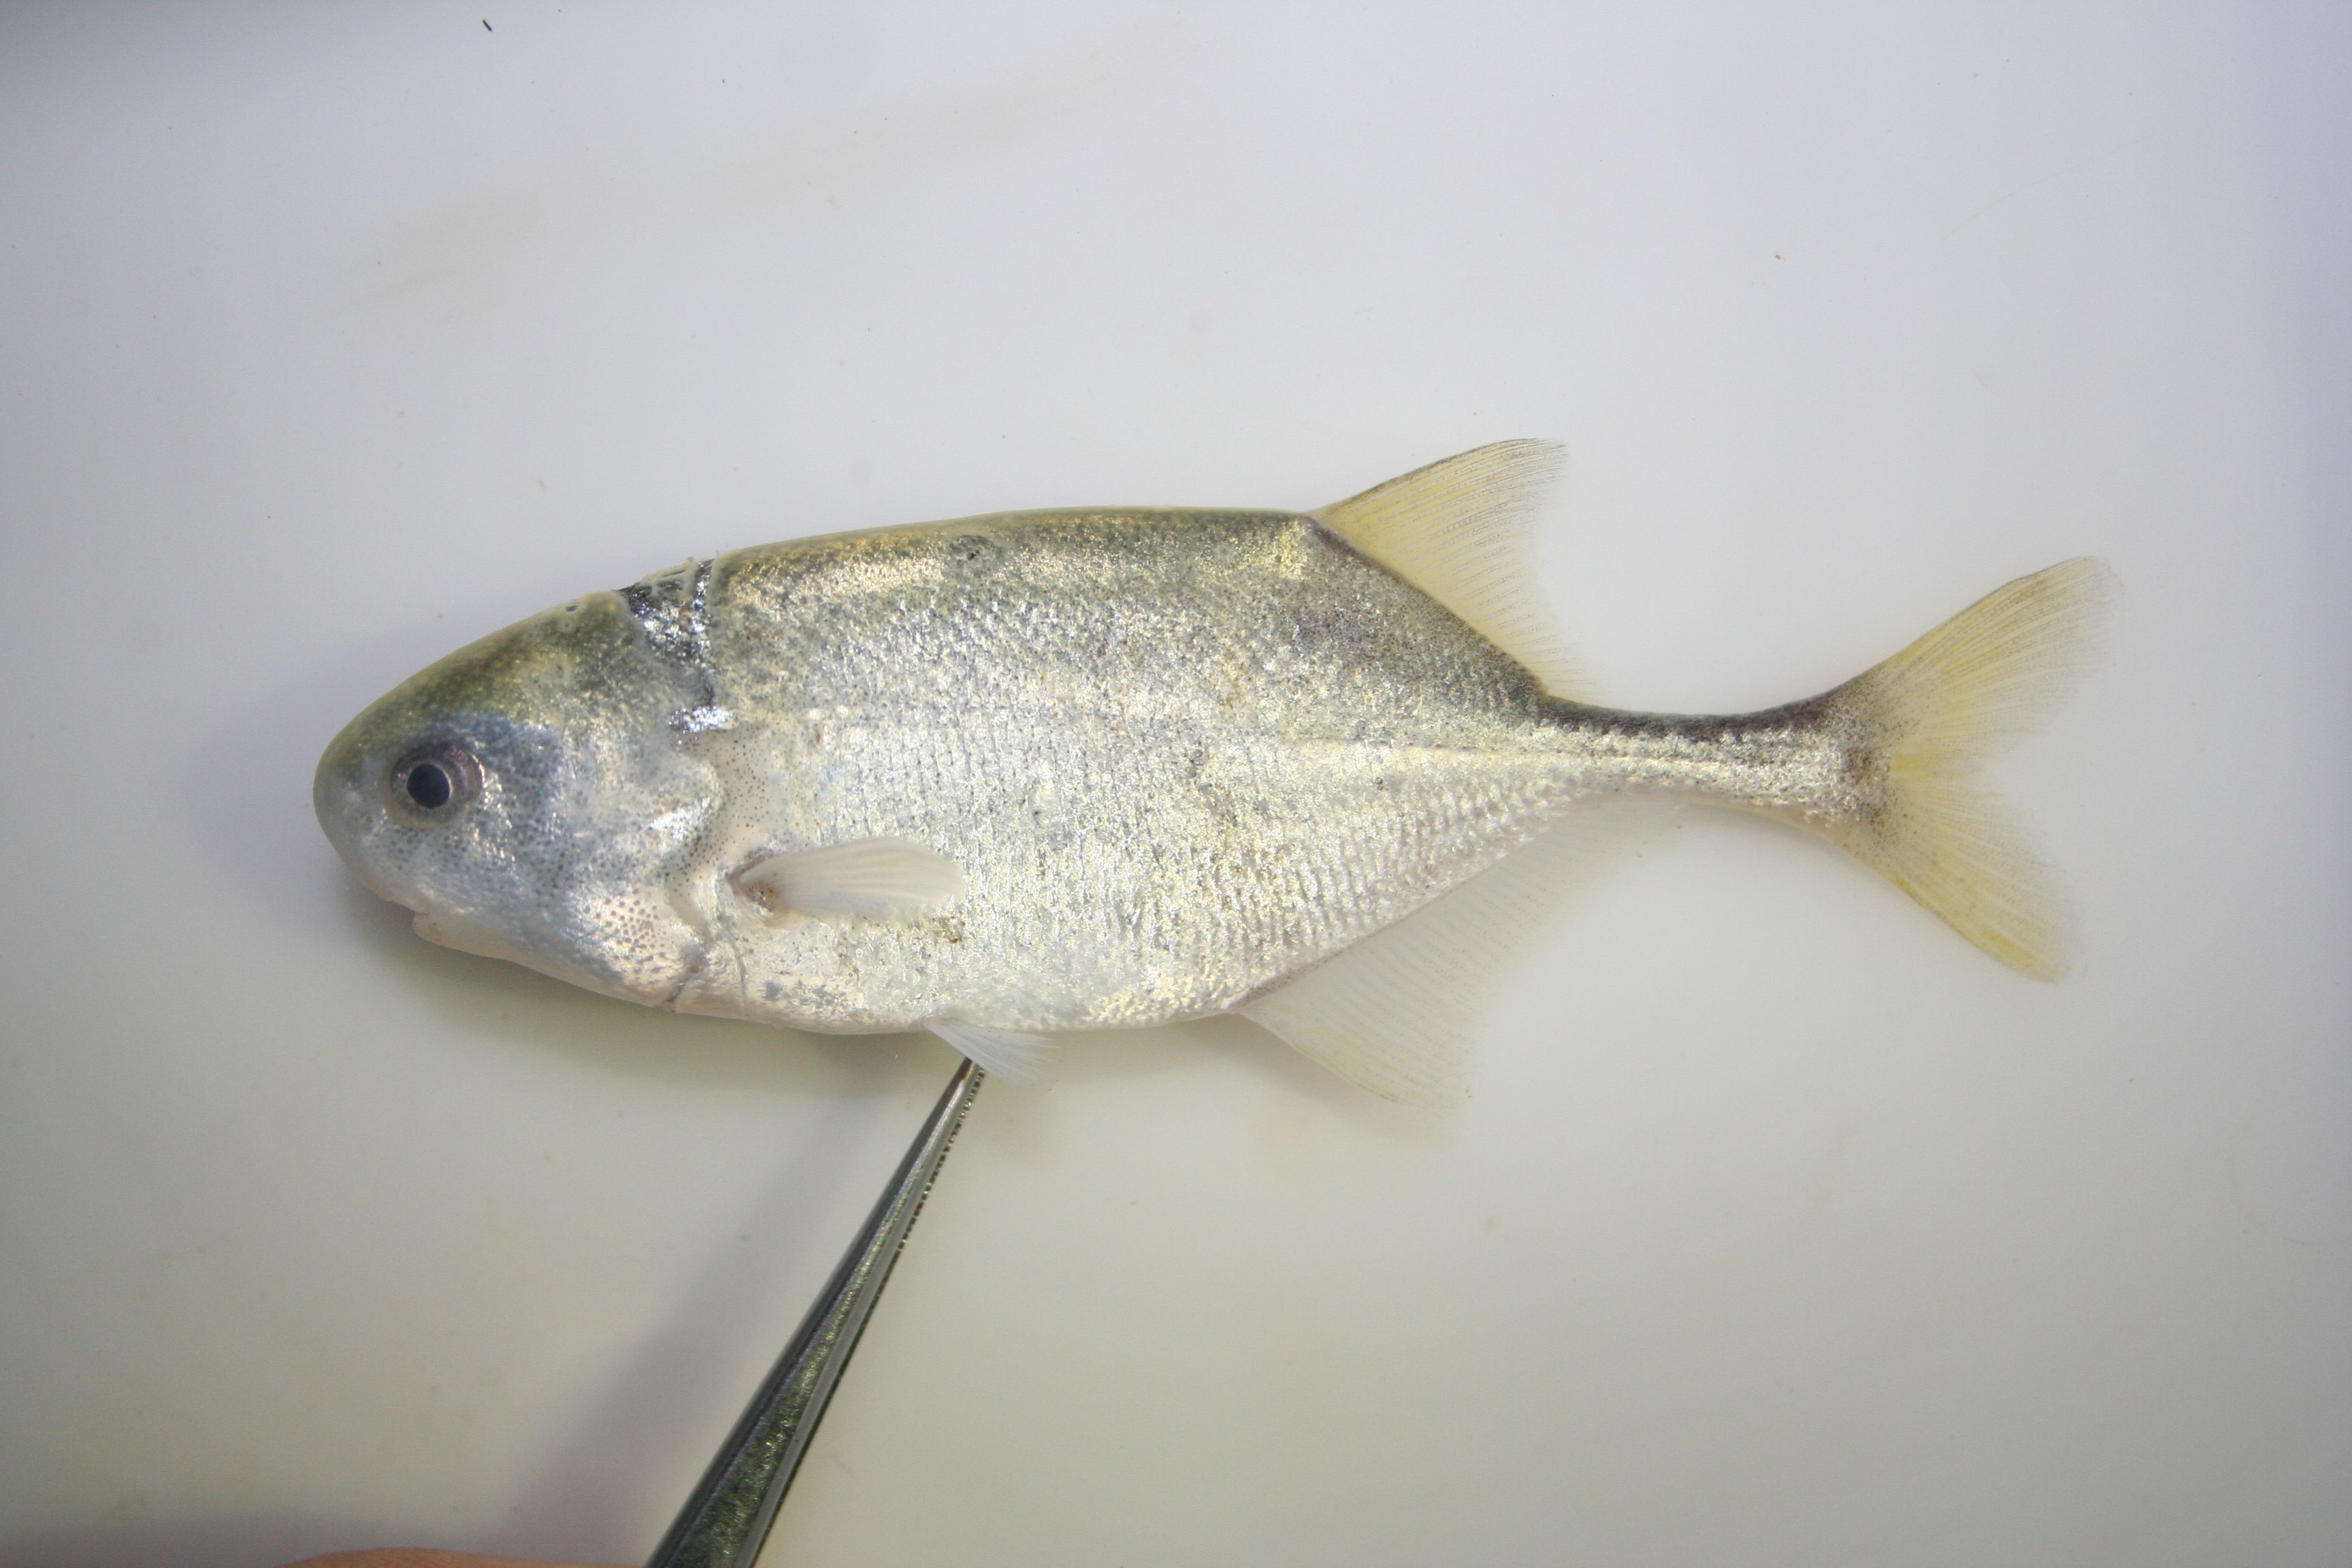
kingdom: Animalia
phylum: Chordata
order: Osteoglossiformes
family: Mormyridae
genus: Petrocephalus
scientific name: Petrocephalus
